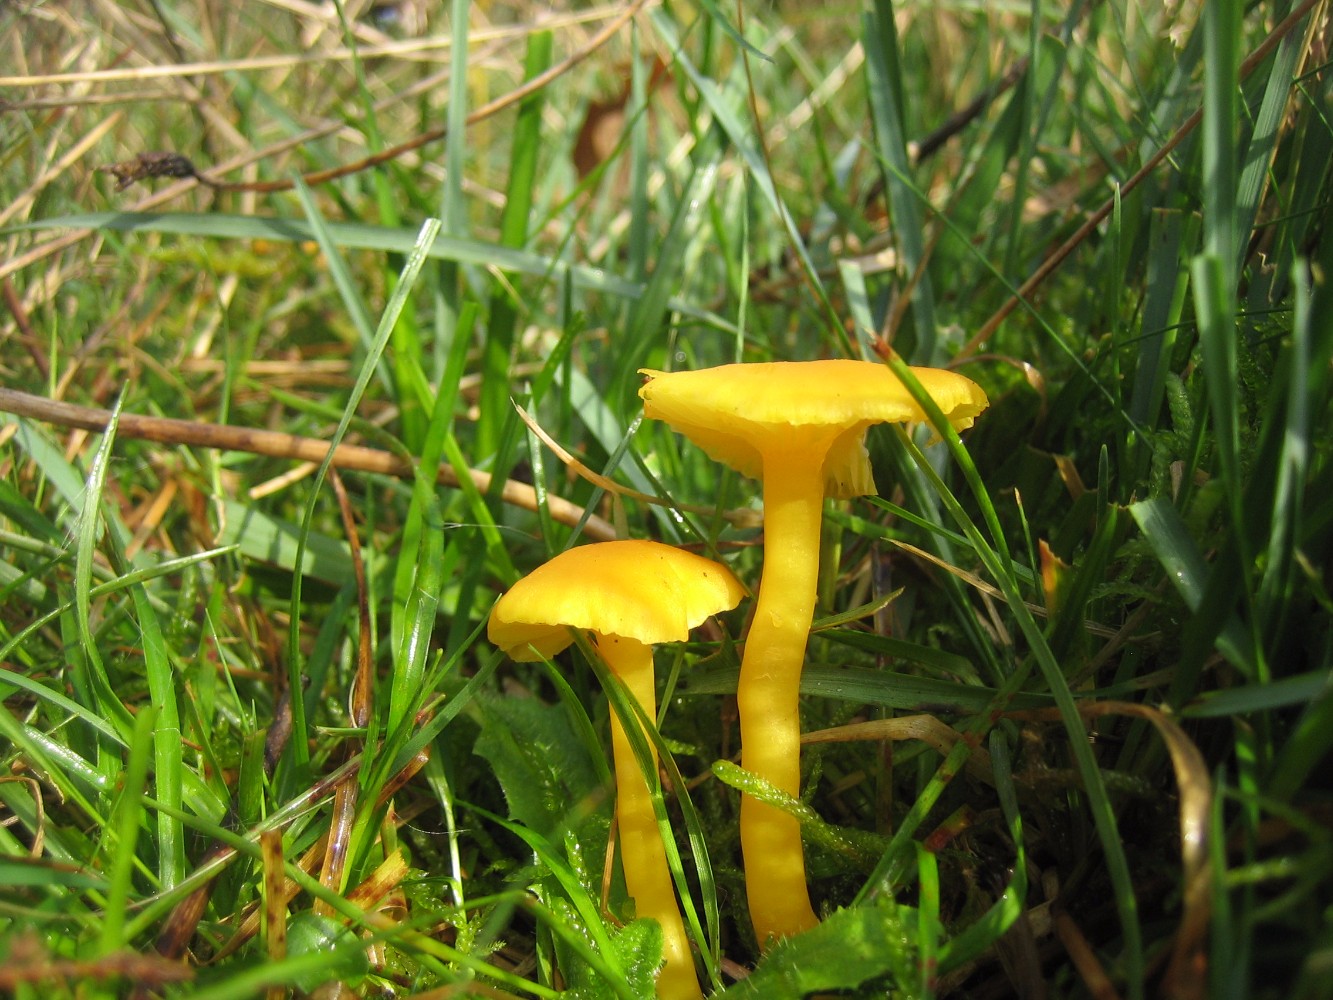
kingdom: Fungi
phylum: Basidiomycota
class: Agaricomycetes
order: Agaricales
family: Hygrophoraceae
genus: Hygrocybe
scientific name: Hygrocybe ceracea
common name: voksgul vokshat
